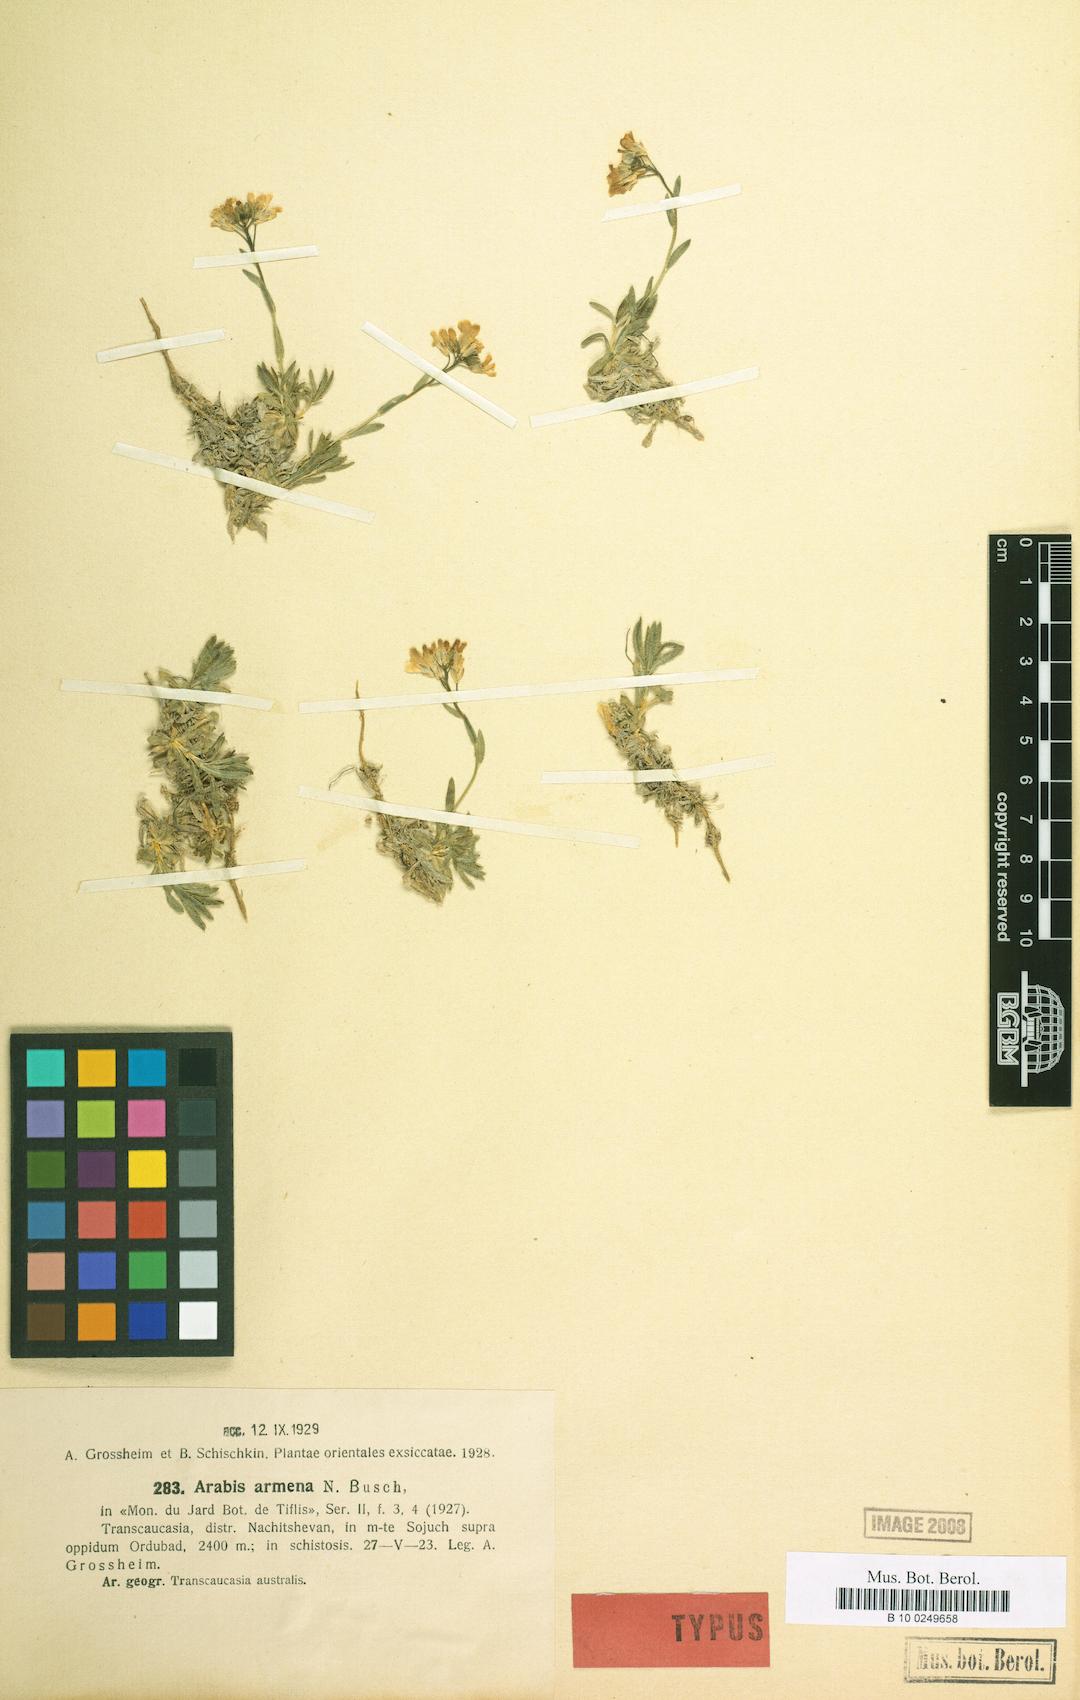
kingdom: Plantae
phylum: Tracheophyta
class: Magnoliopsida
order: Brassicales
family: Brassicaceae
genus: Arabis
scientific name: Arabis carduchorum
